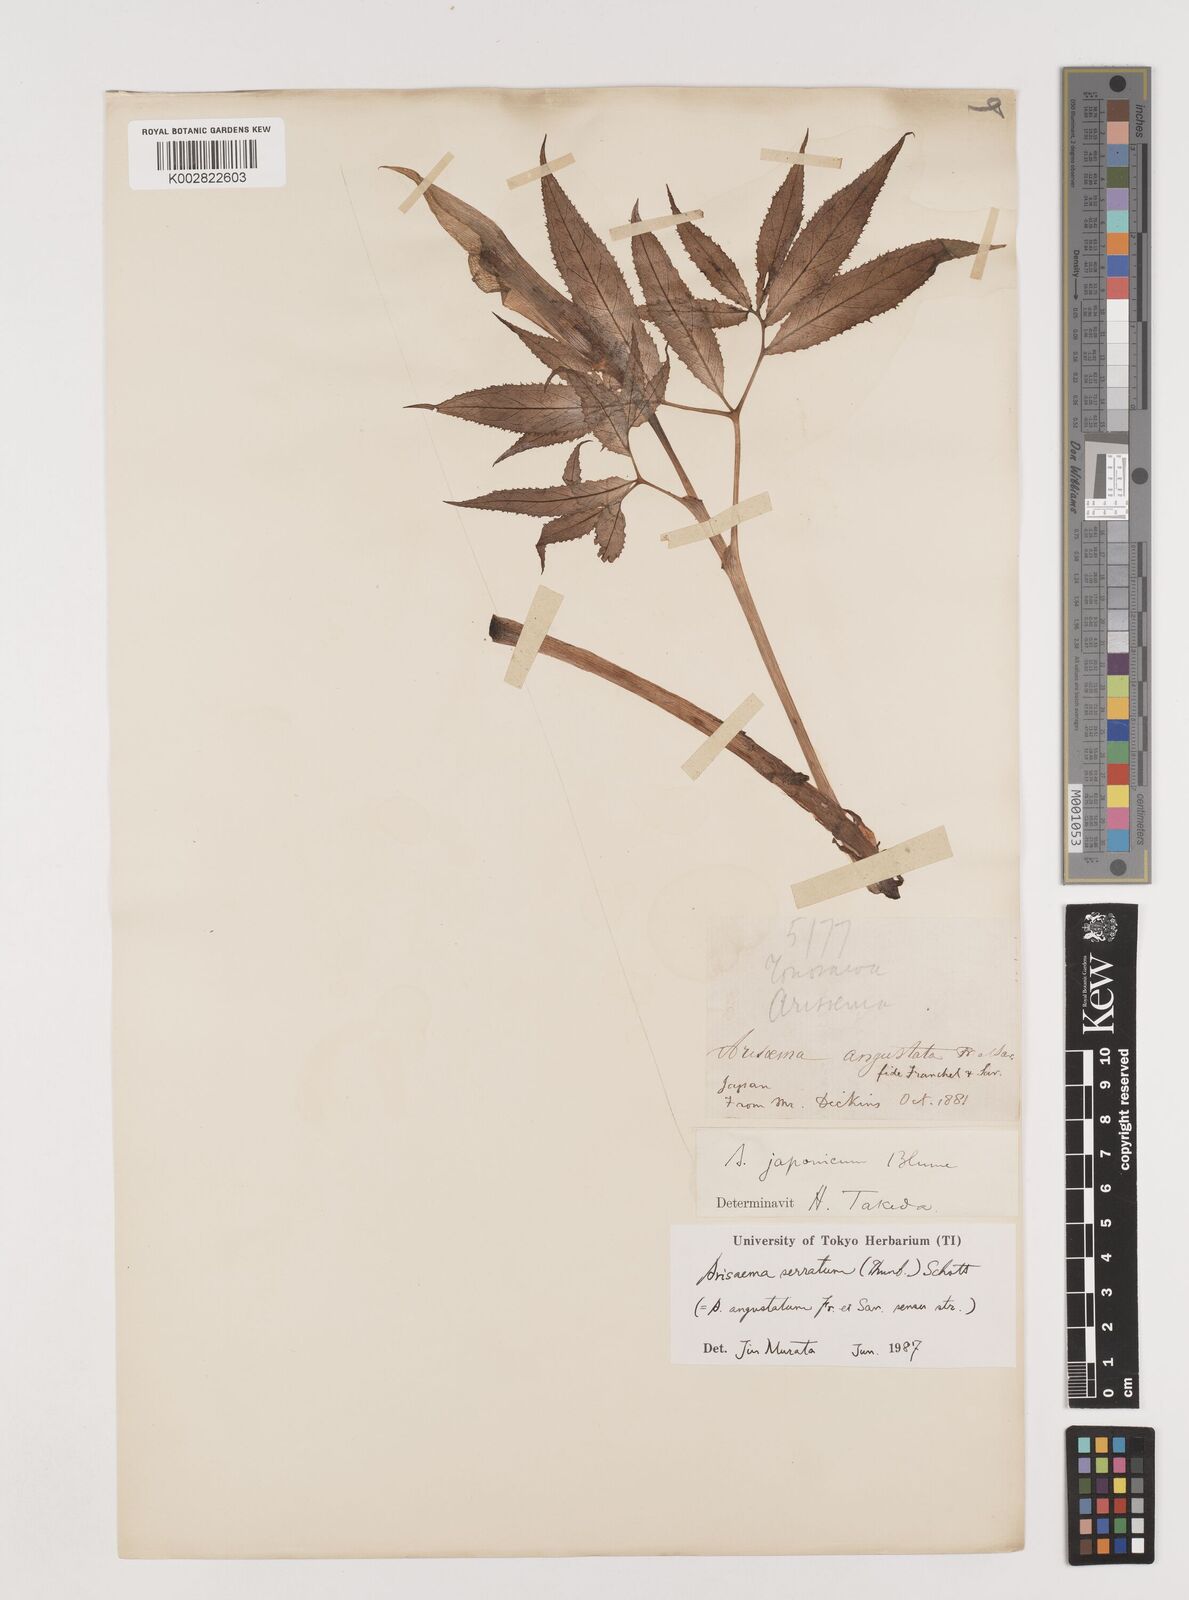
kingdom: Plantae
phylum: Tracheophyta
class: Liliopsida
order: Alismatales
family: Araceae
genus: Arisaema
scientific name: Arisaema serratum
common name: Japanese arisaema
